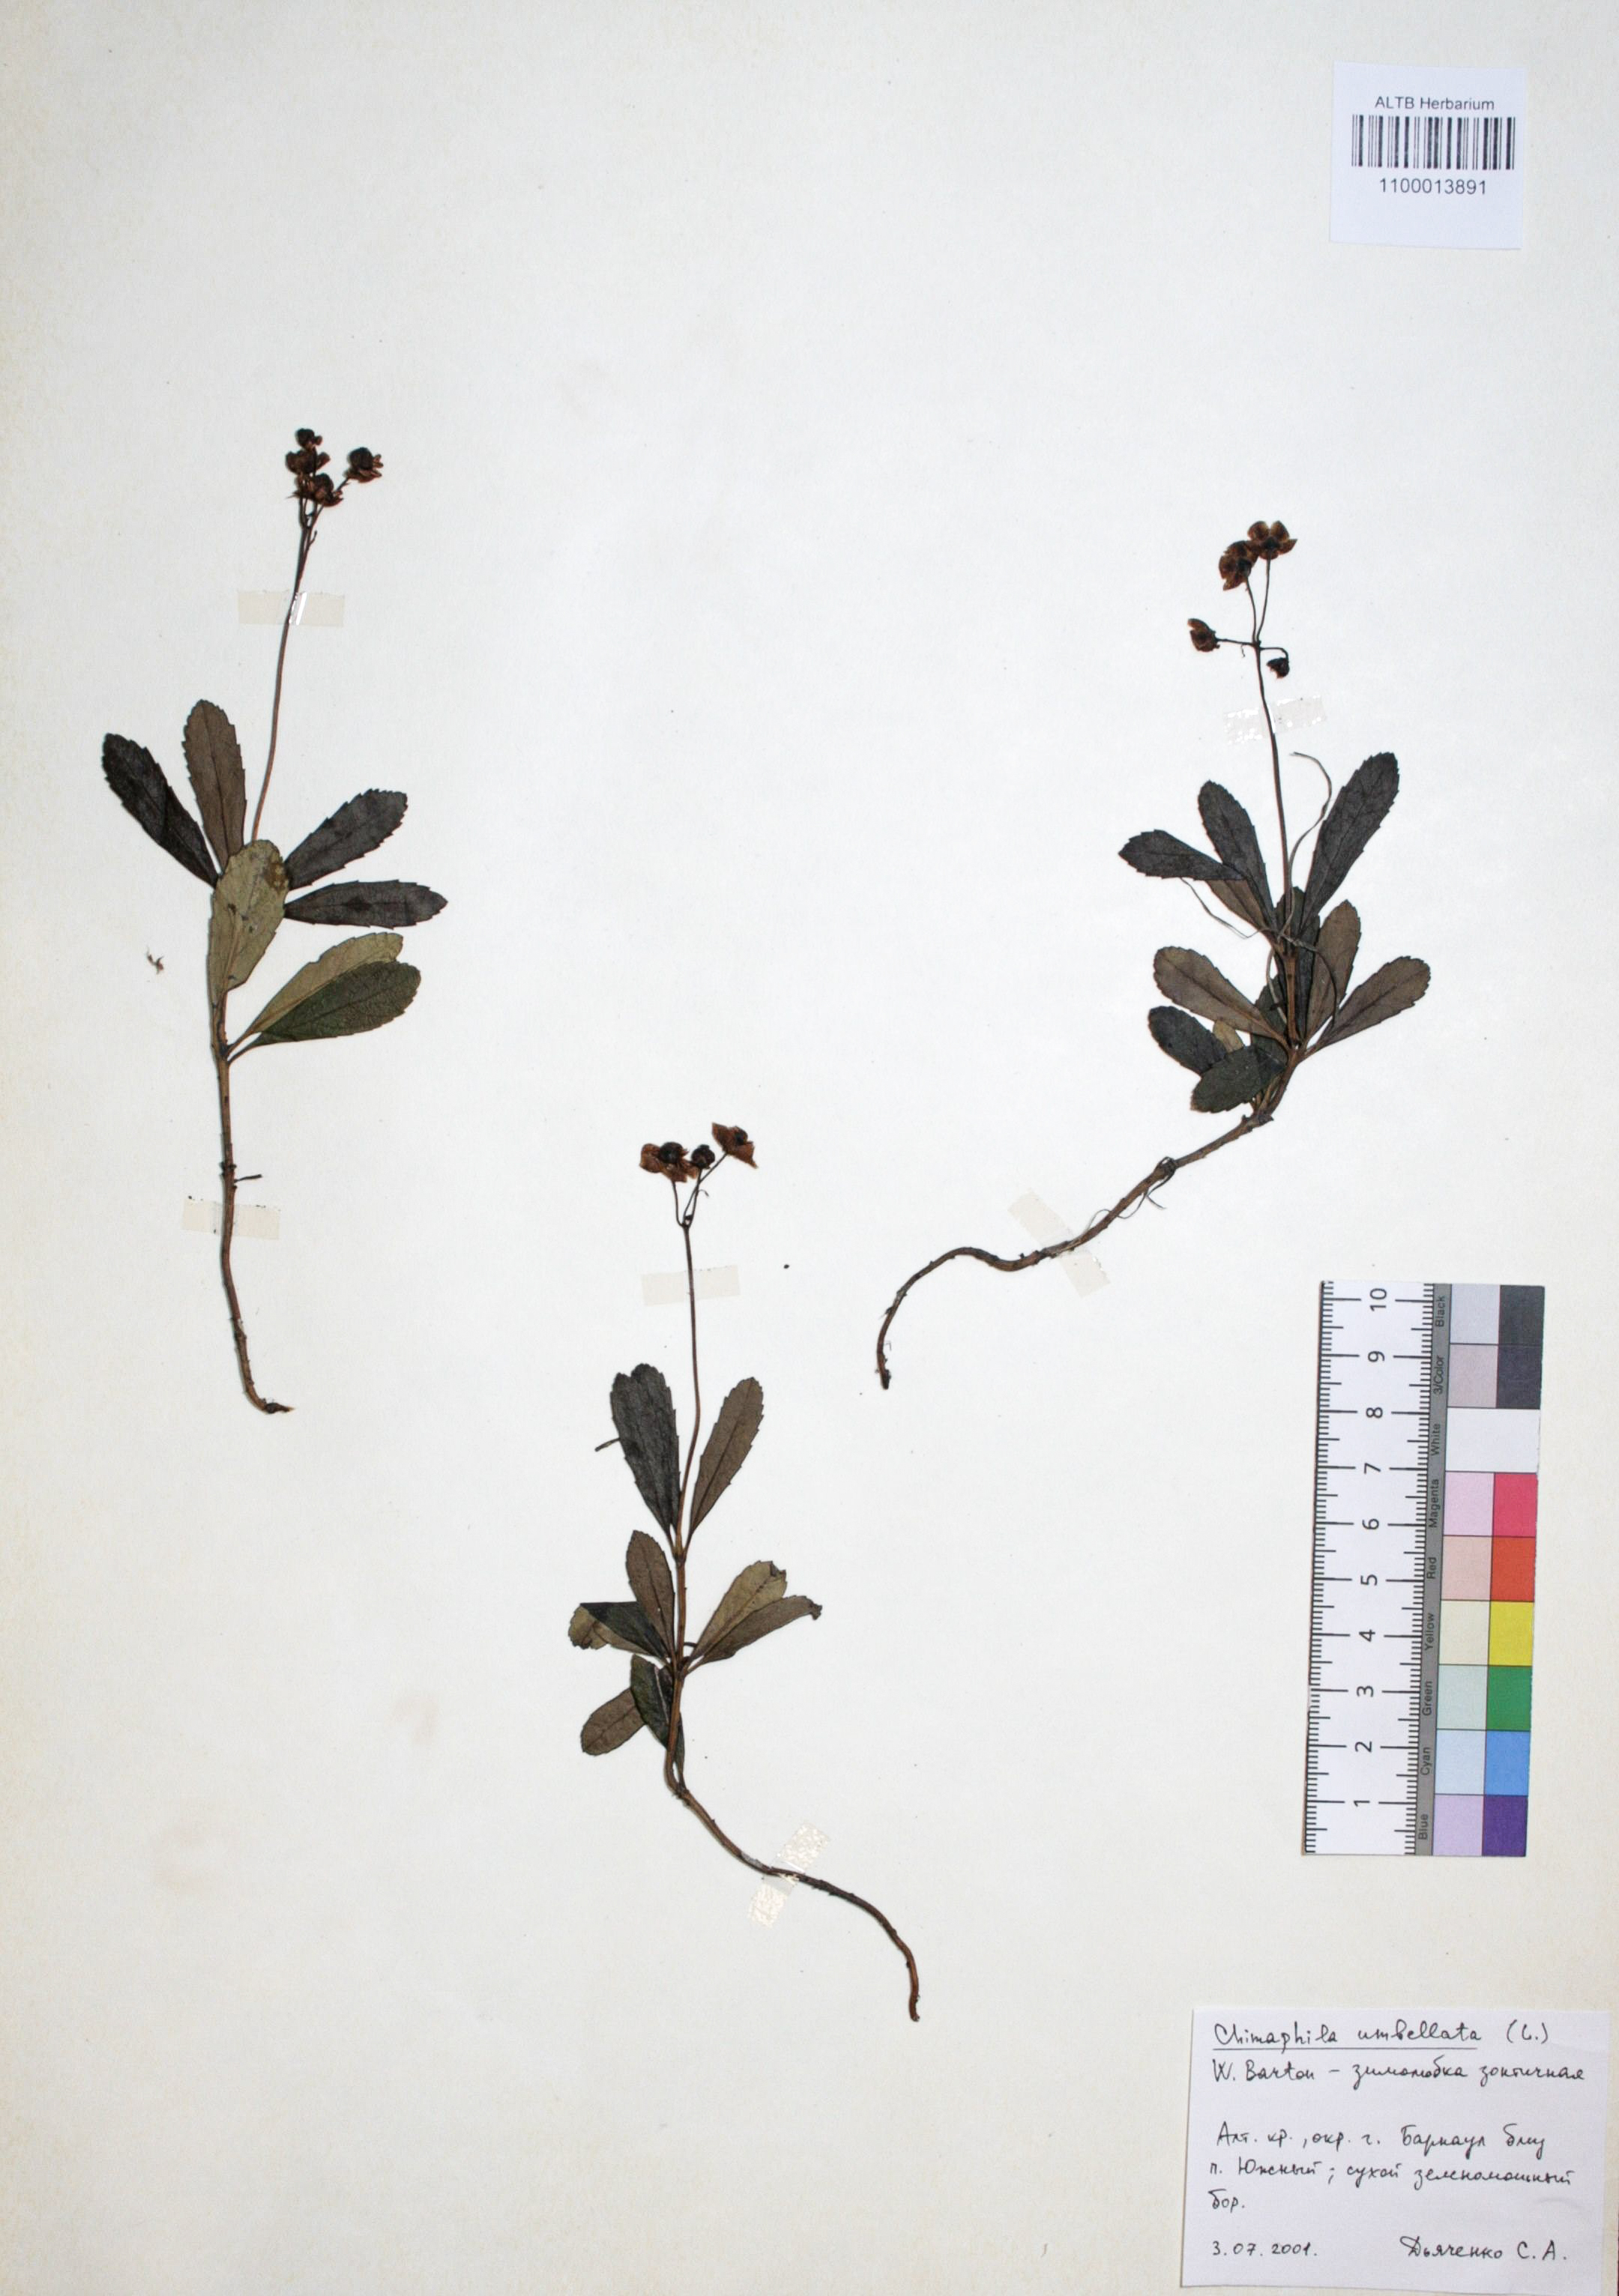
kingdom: Plantae
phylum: Tracheophyta
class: Magnoliopsida
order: Ericales
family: Ericaceae
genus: Chimaphila
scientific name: Chimaphila umbellata
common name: Pipsissewa
